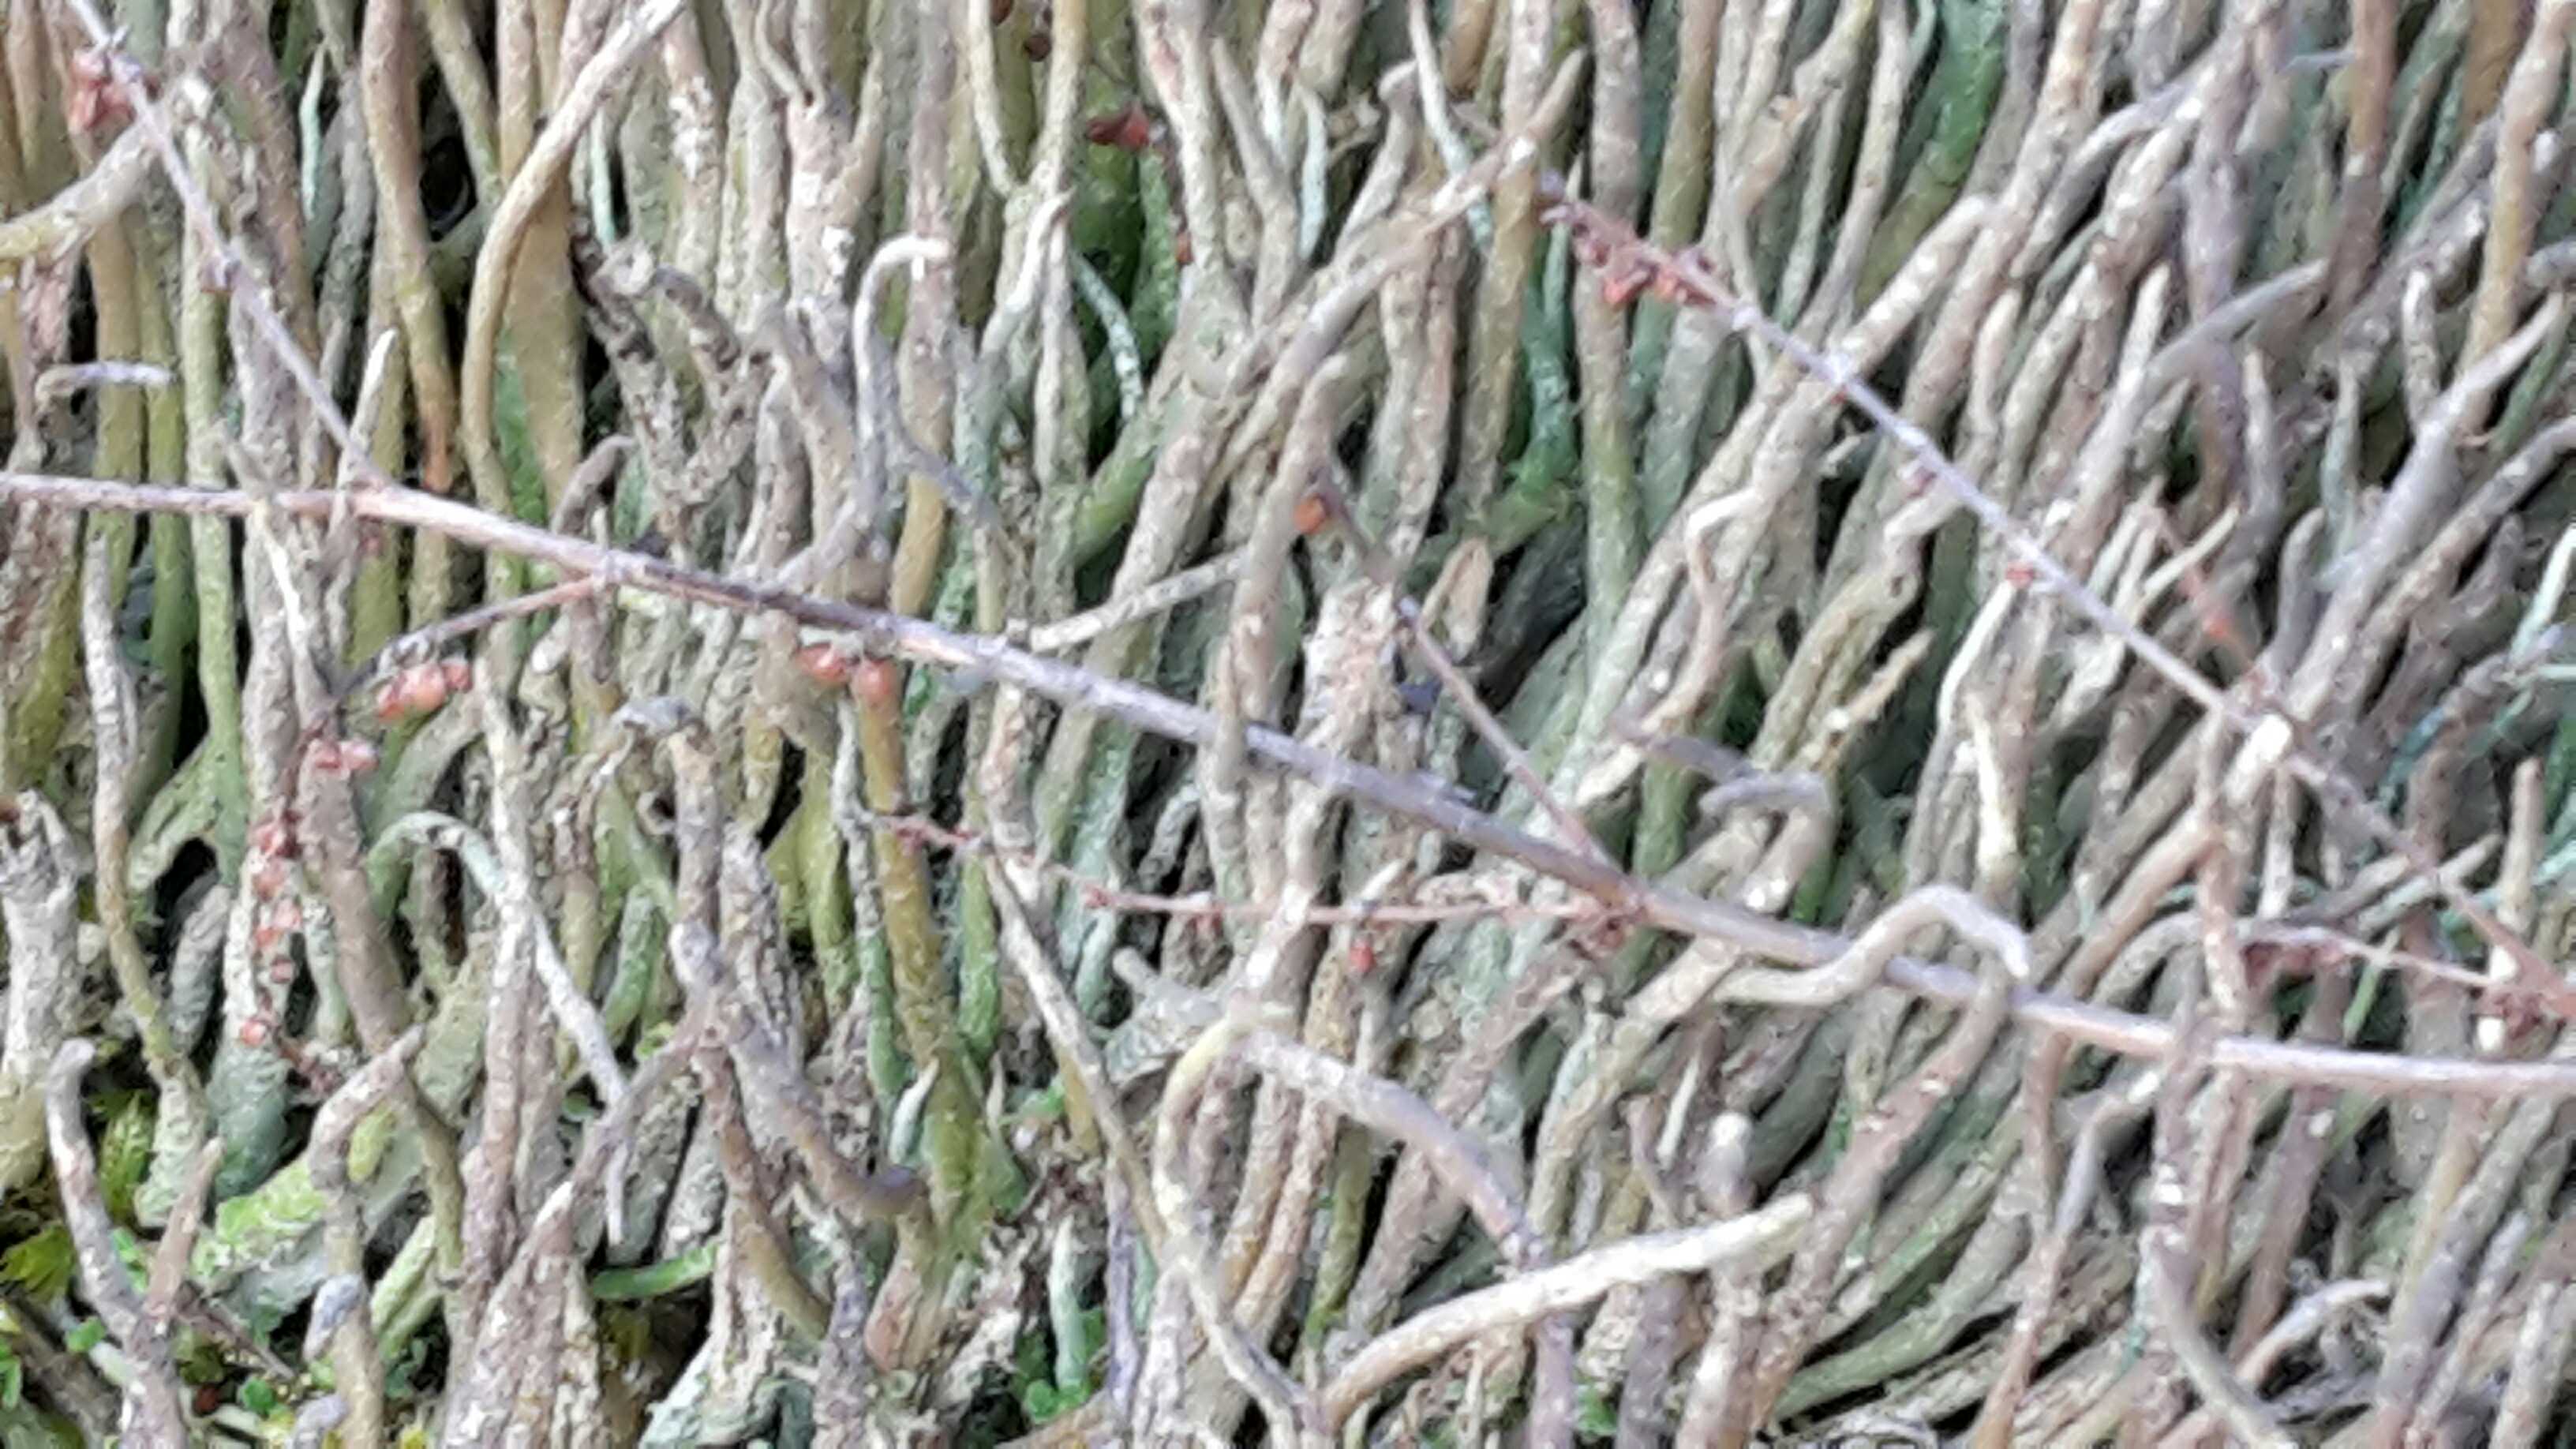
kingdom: Fungi
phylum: Ascomycota
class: Lecanoromycetes
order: Lecanorales
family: Cladoniaceae
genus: Cladonia
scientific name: Cladonia
